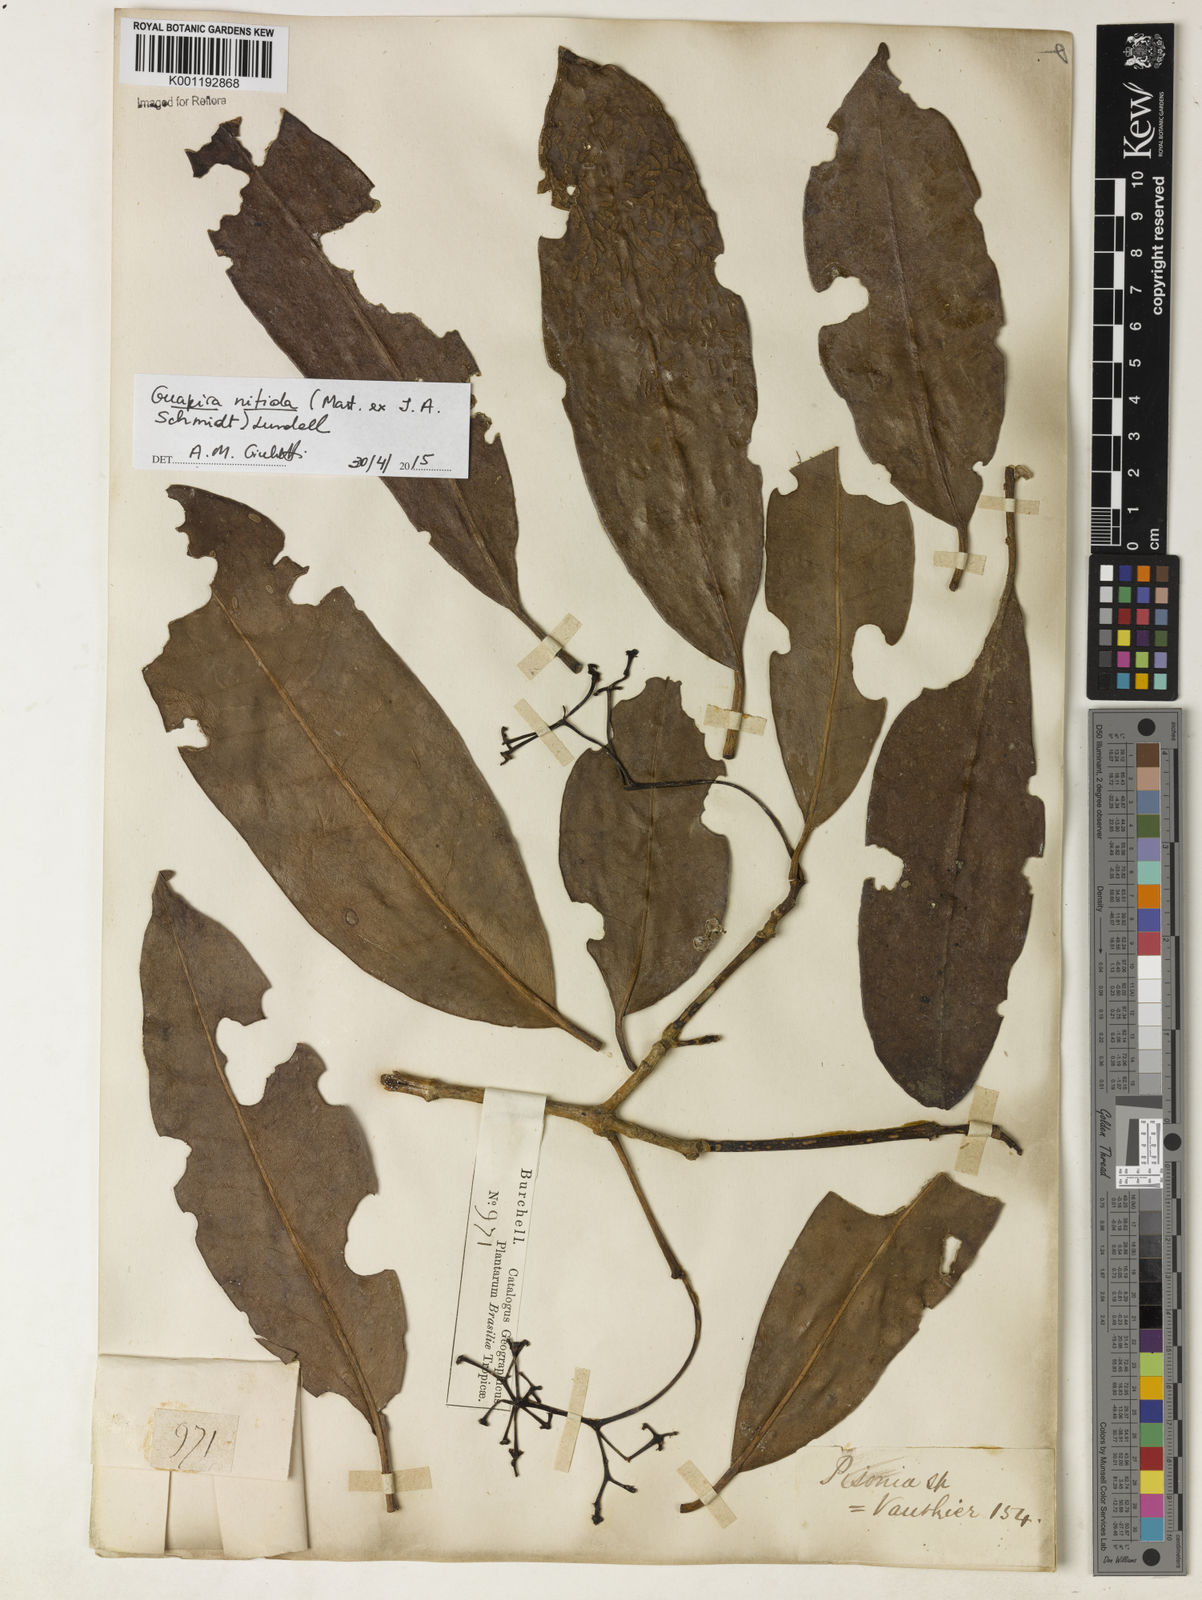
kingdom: Plantae
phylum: Tracheophyta
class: Magnoliopsida
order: Caryophyllales
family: Nyctaginaceae
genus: Guapira
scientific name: Guapira nitida
